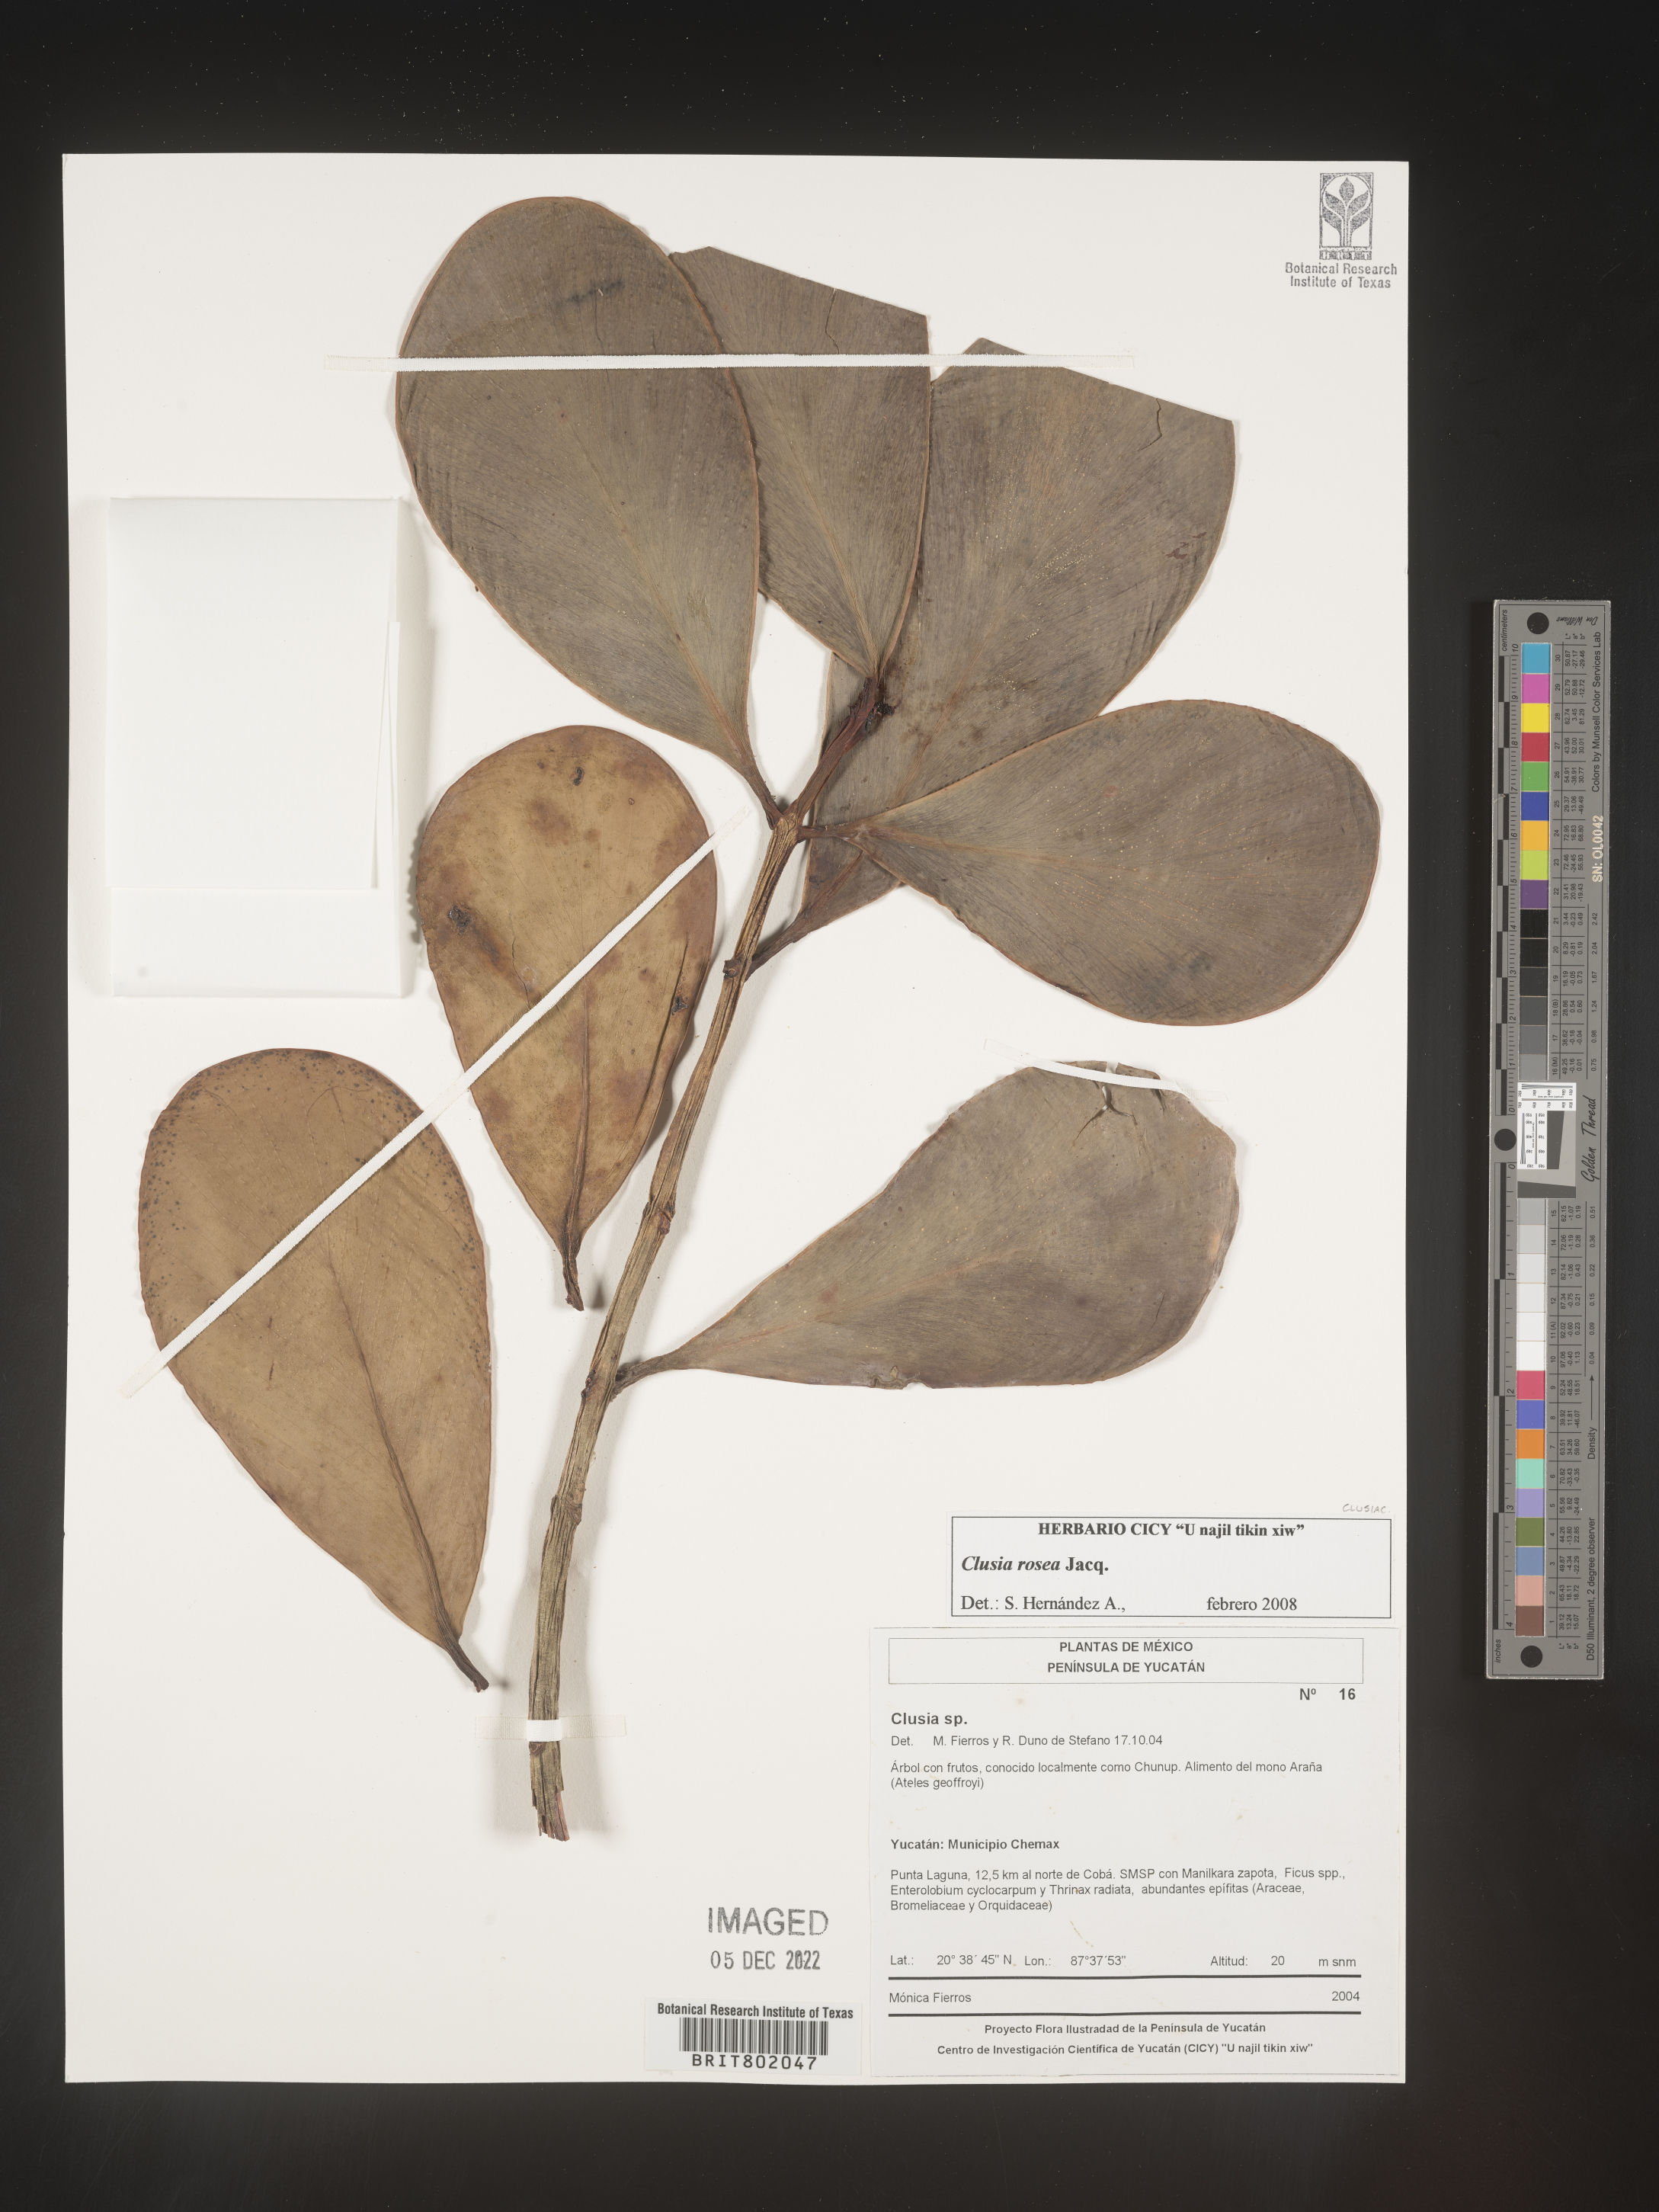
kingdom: Plantae
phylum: Tracheophyta
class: Magnoliopsida
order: Malpighiales
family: Clusiaceae
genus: Clusia
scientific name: Clusia
